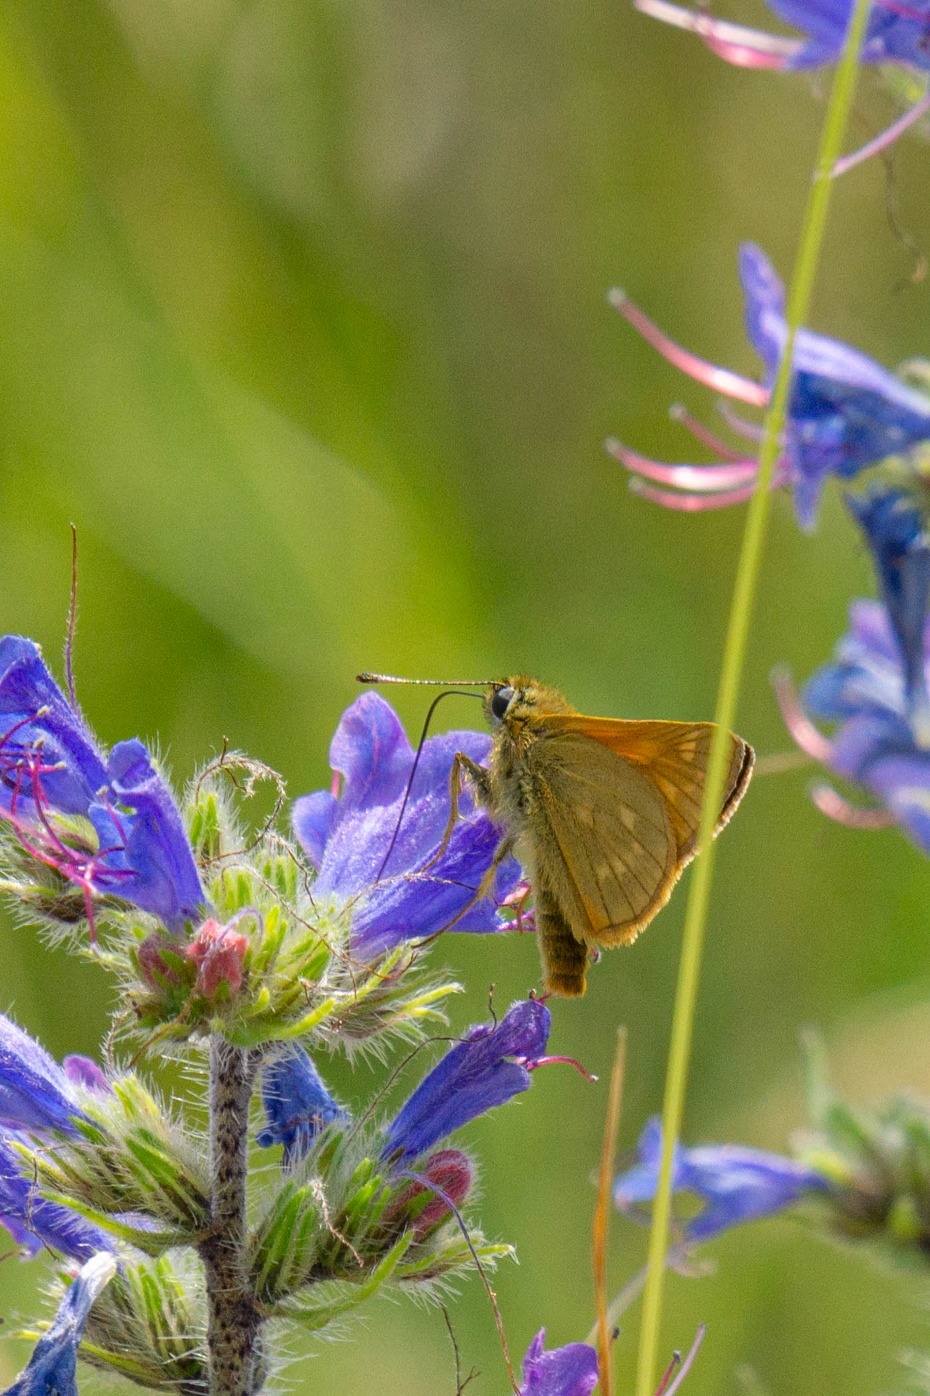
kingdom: Animalia
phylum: Arthropoda
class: Insecta
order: Lepidoptera
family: Hesperiidae
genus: Ochlodes
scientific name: Ochlodes venata
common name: Stor bredpande
